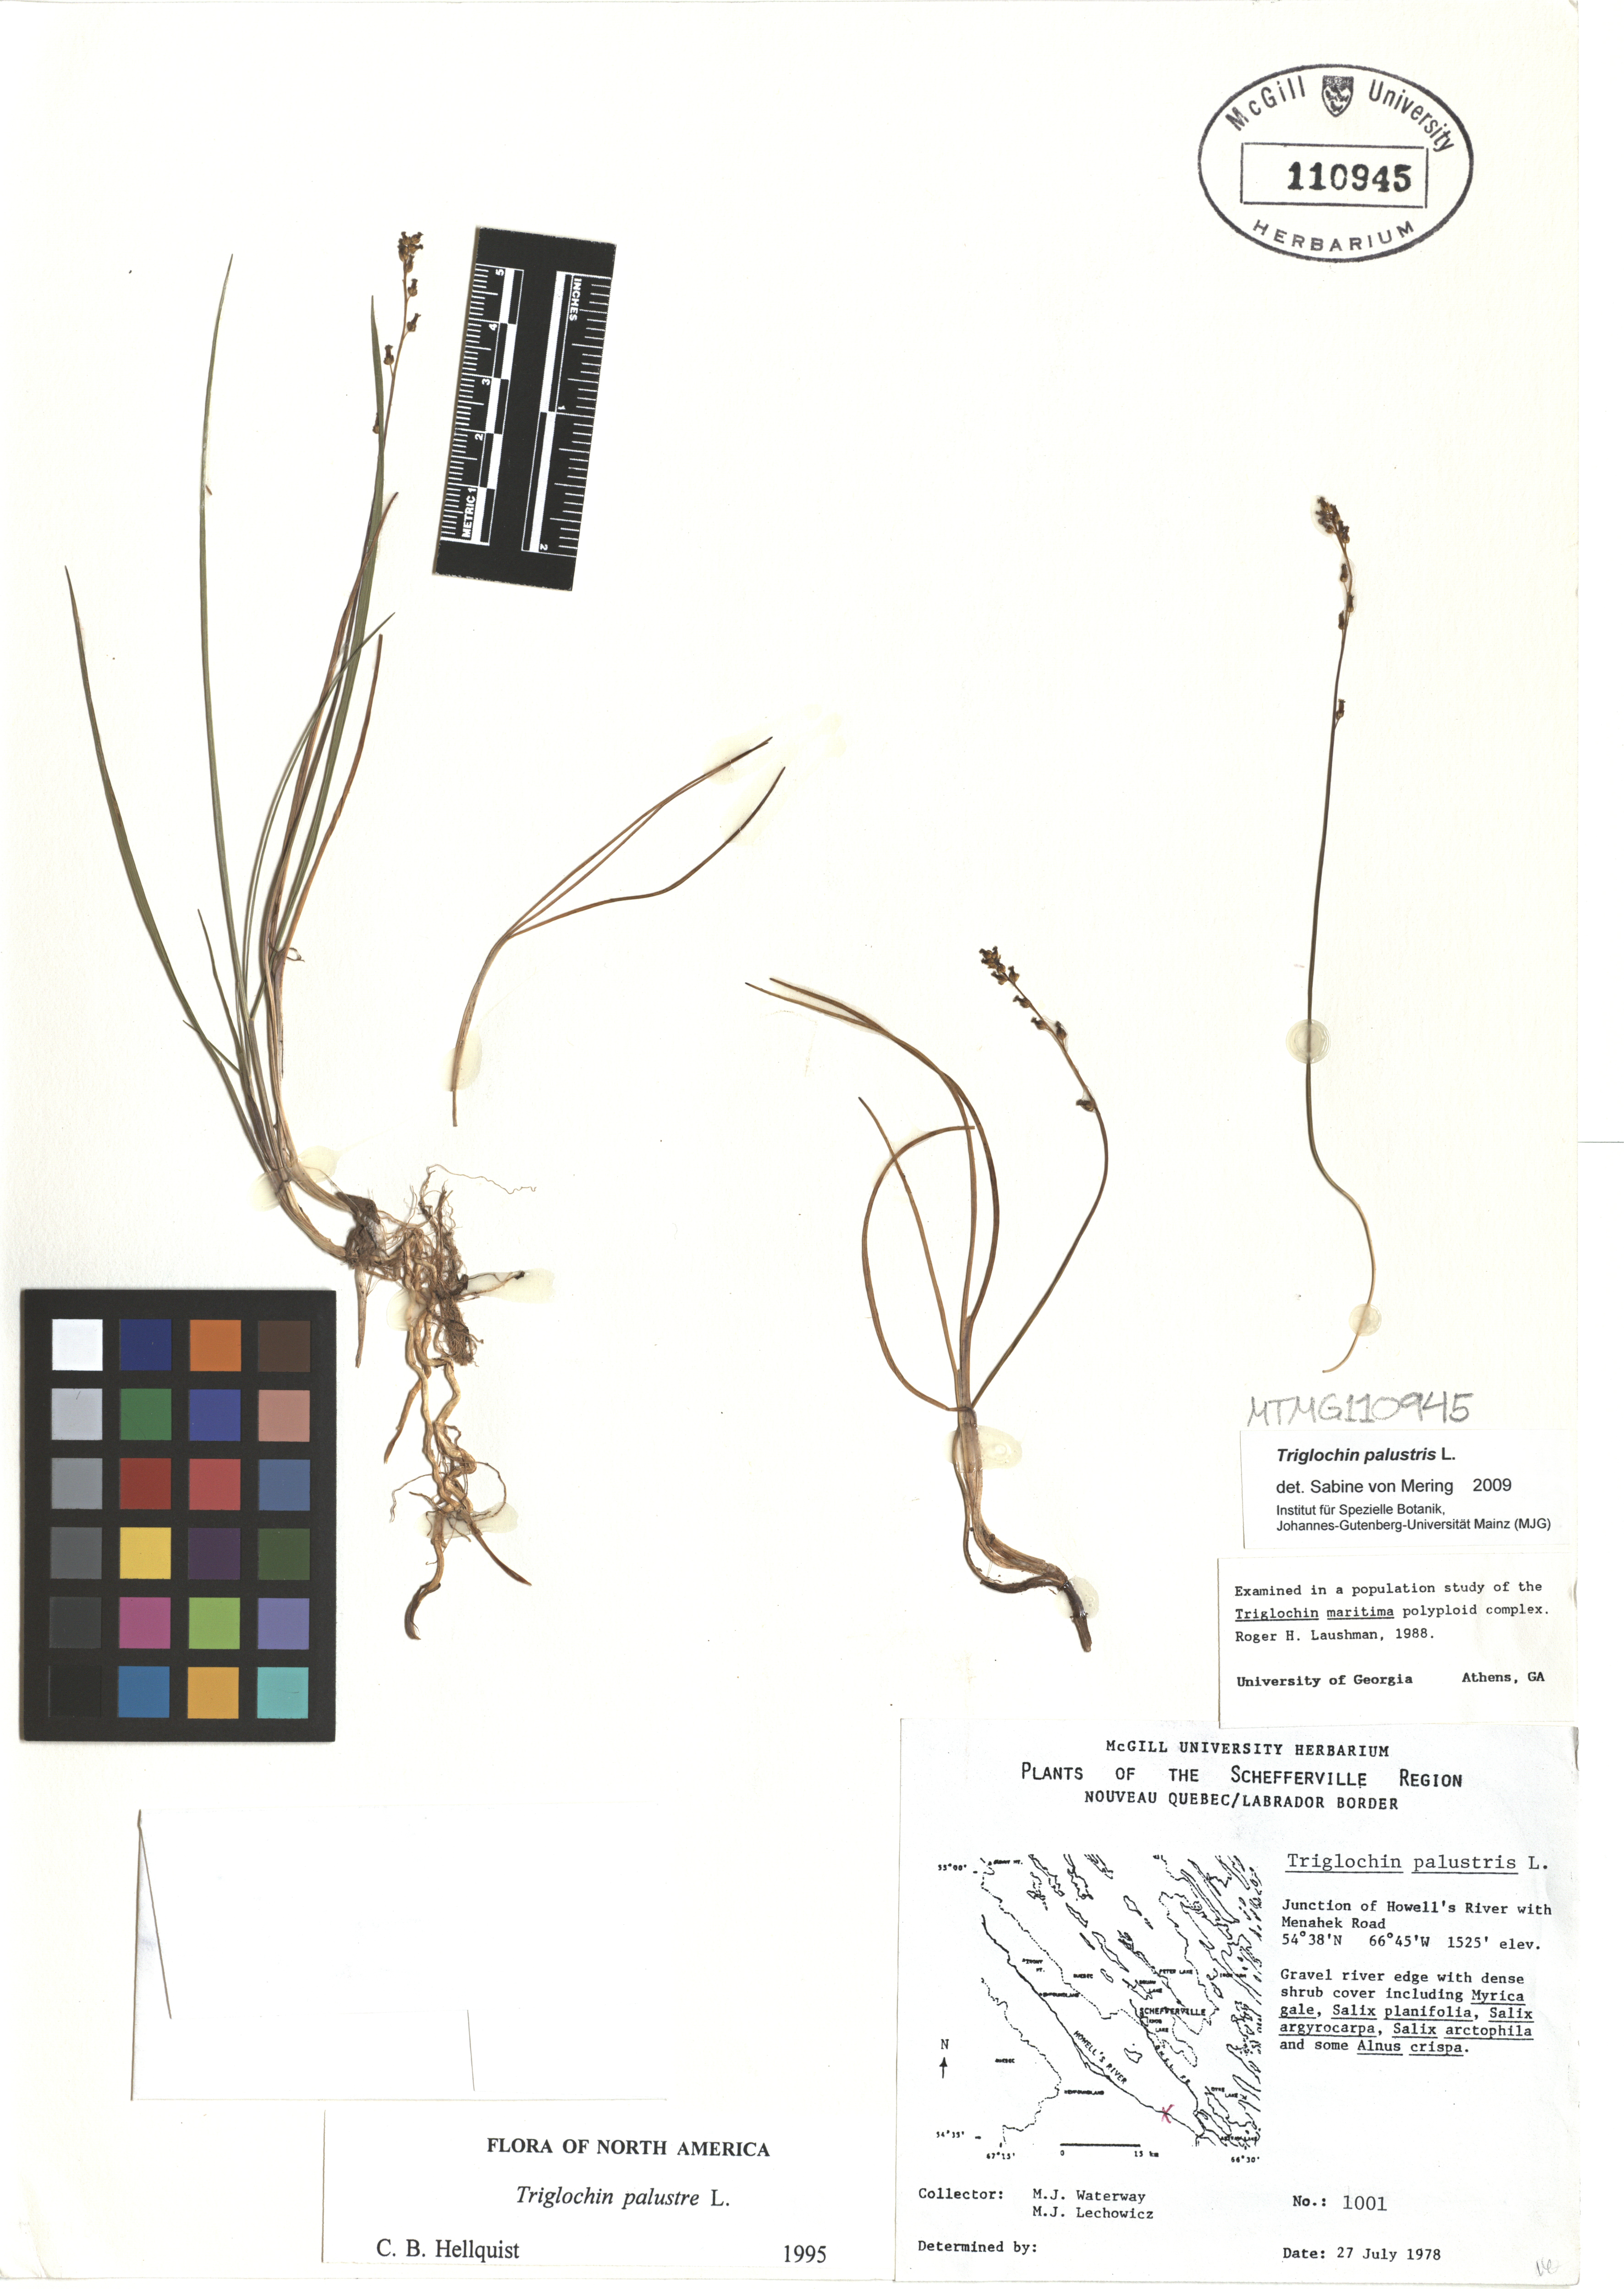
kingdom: Plantae
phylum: Tracheophyta
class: Liliopsida
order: Alismatales
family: Juncaginaceae
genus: Triglochin
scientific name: Triglochin palustris
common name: Marsh arrowgrass
